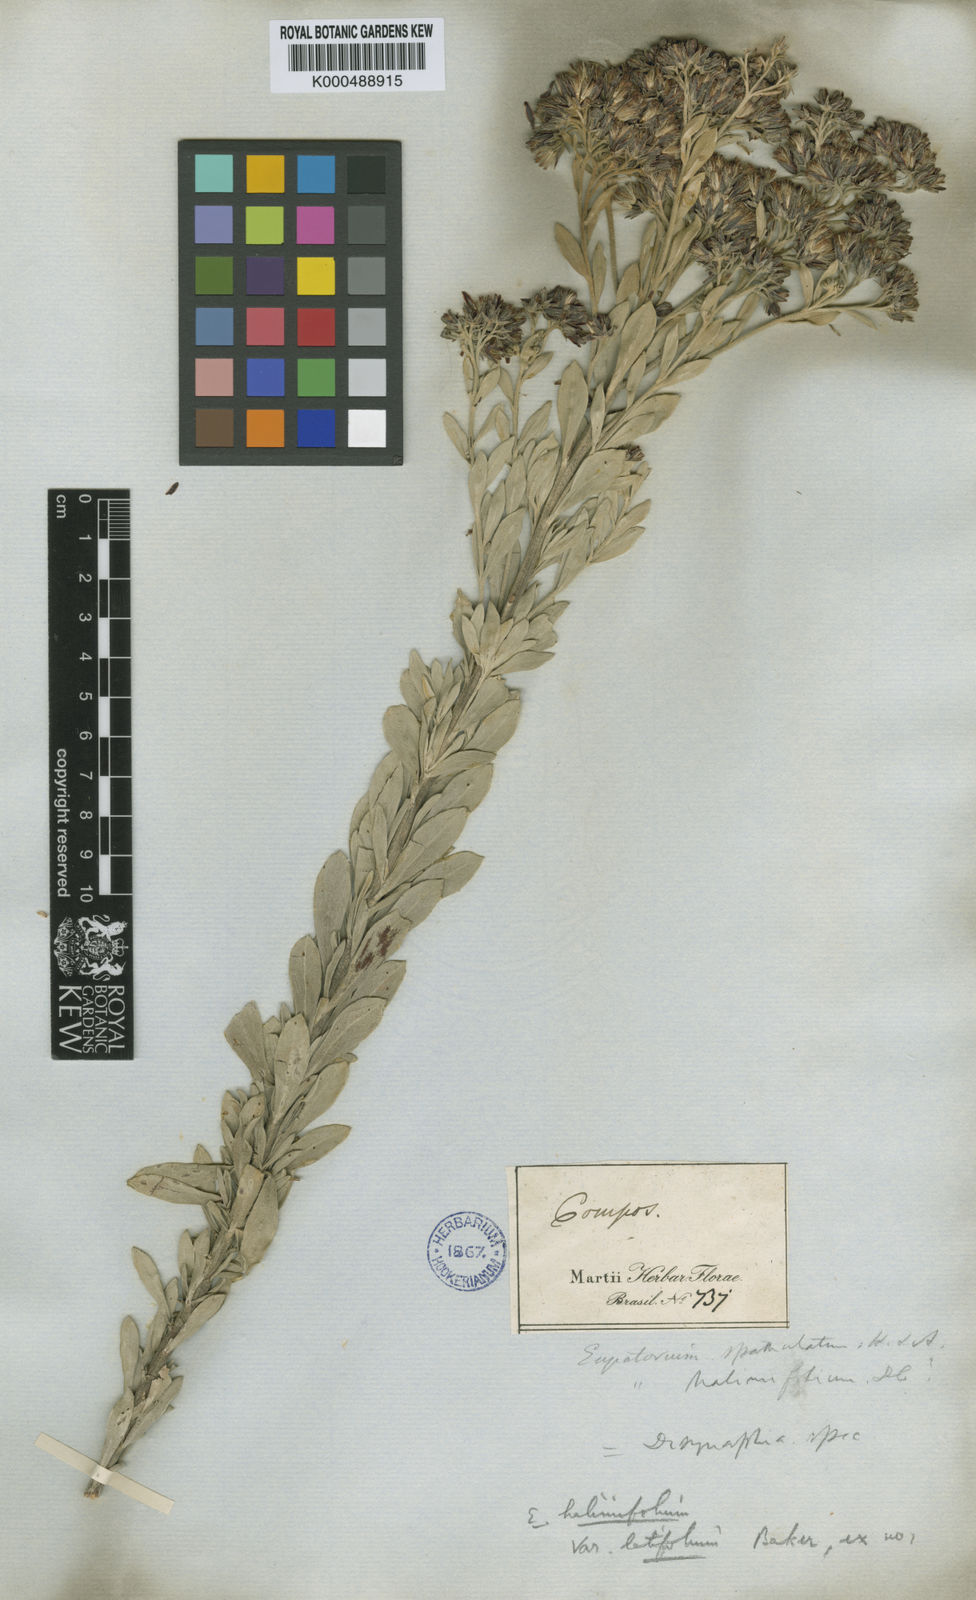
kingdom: Plantae
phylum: Tracheophyta
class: Magnoliopsida
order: Asterales
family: Asteraceae
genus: Disynaphia
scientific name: Disynaphia halimifolia
